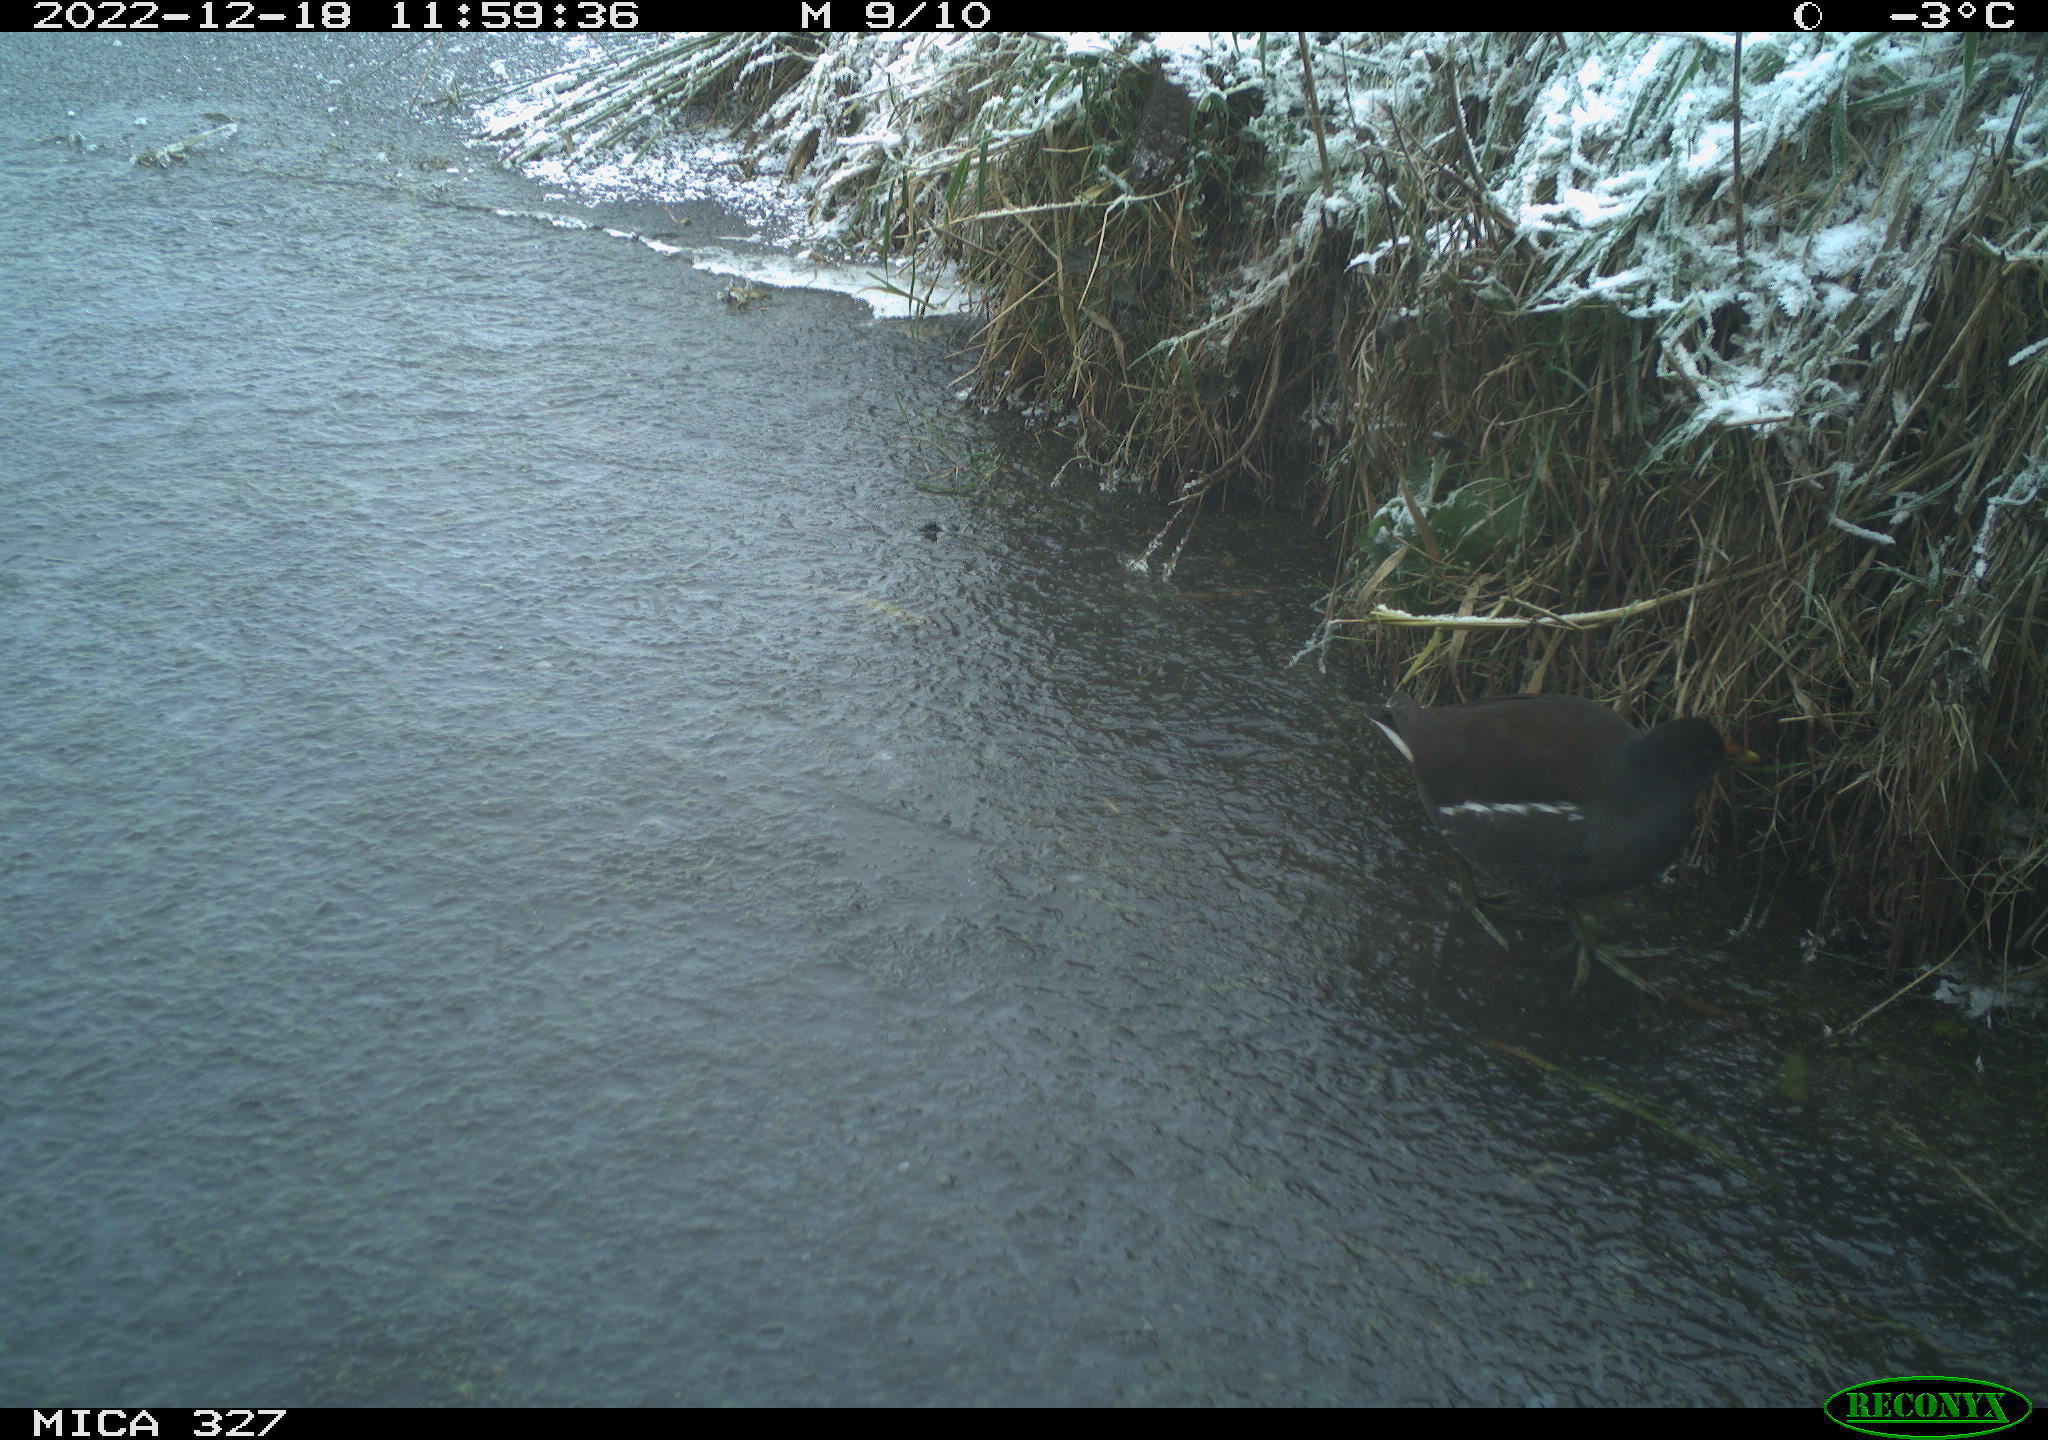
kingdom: Animalia
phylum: Chordata
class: Aves
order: Gruiformes
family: Rallidae
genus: Gallinula
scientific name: Gallinula chloropus
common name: Common moorhen
